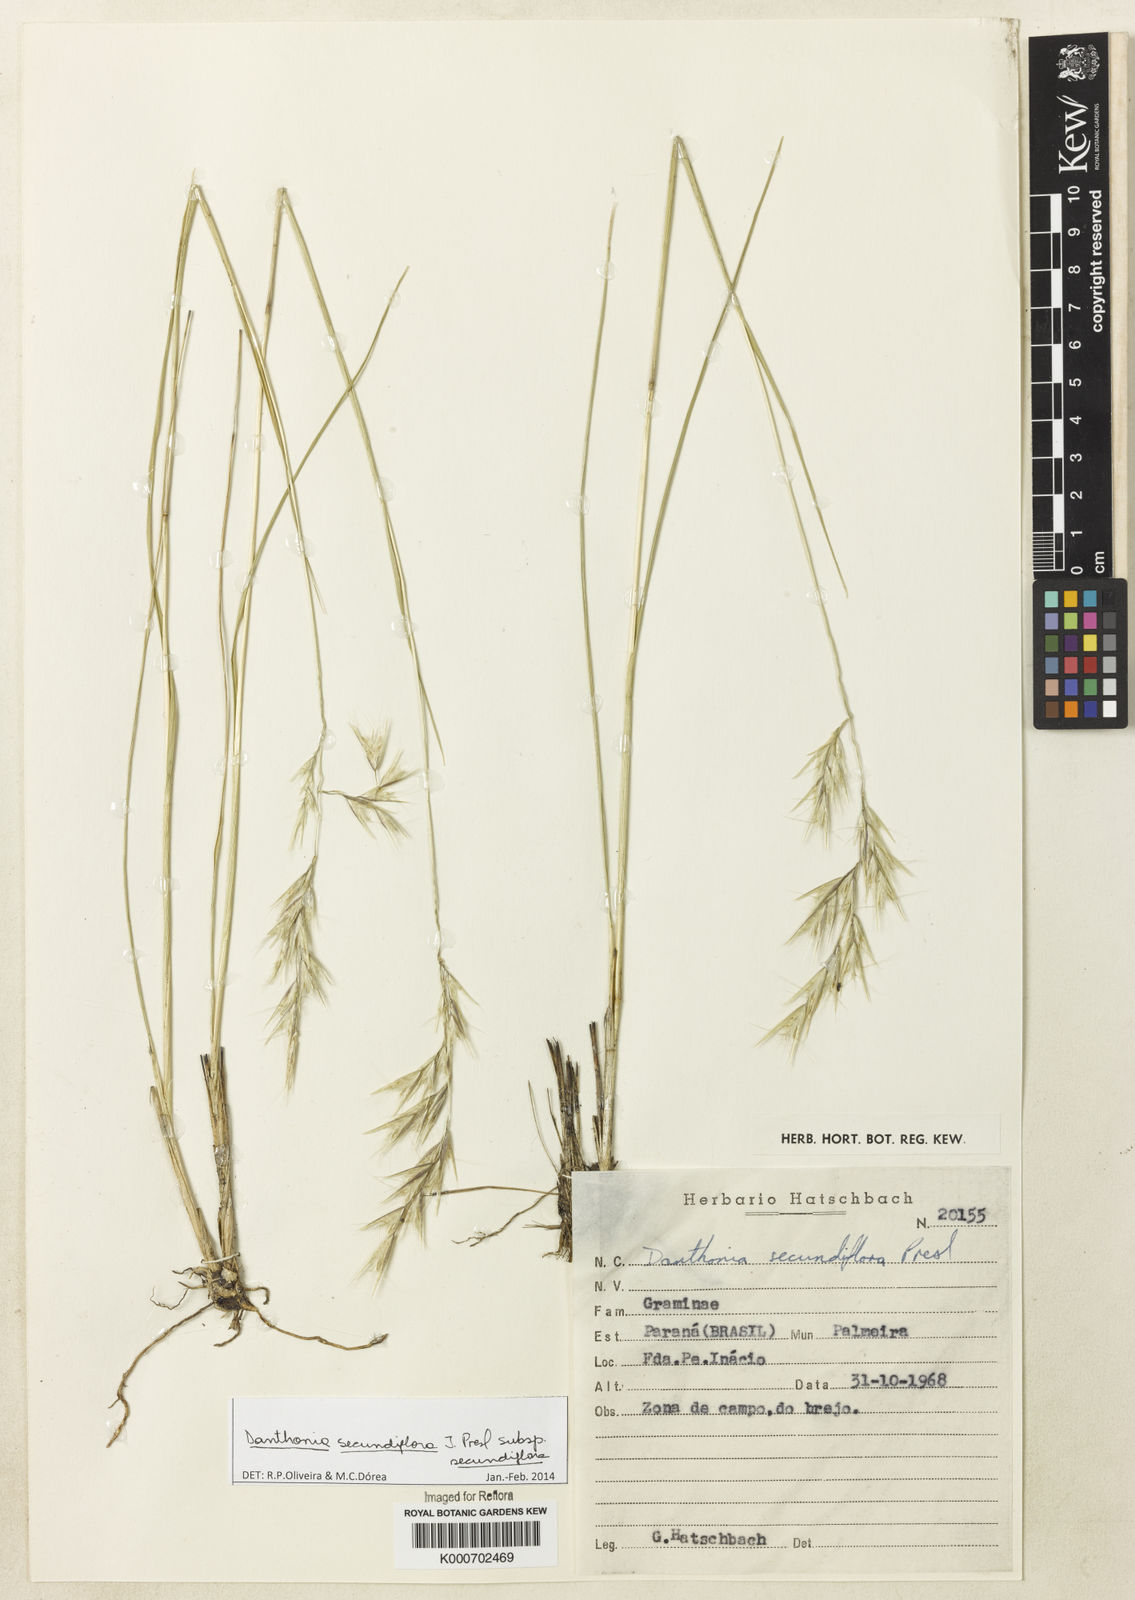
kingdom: Plantae
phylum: Tracheophyta
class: Liliopsida
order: Poales
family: Poaceae
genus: Danthonia
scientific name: Danthonia secundiflora
